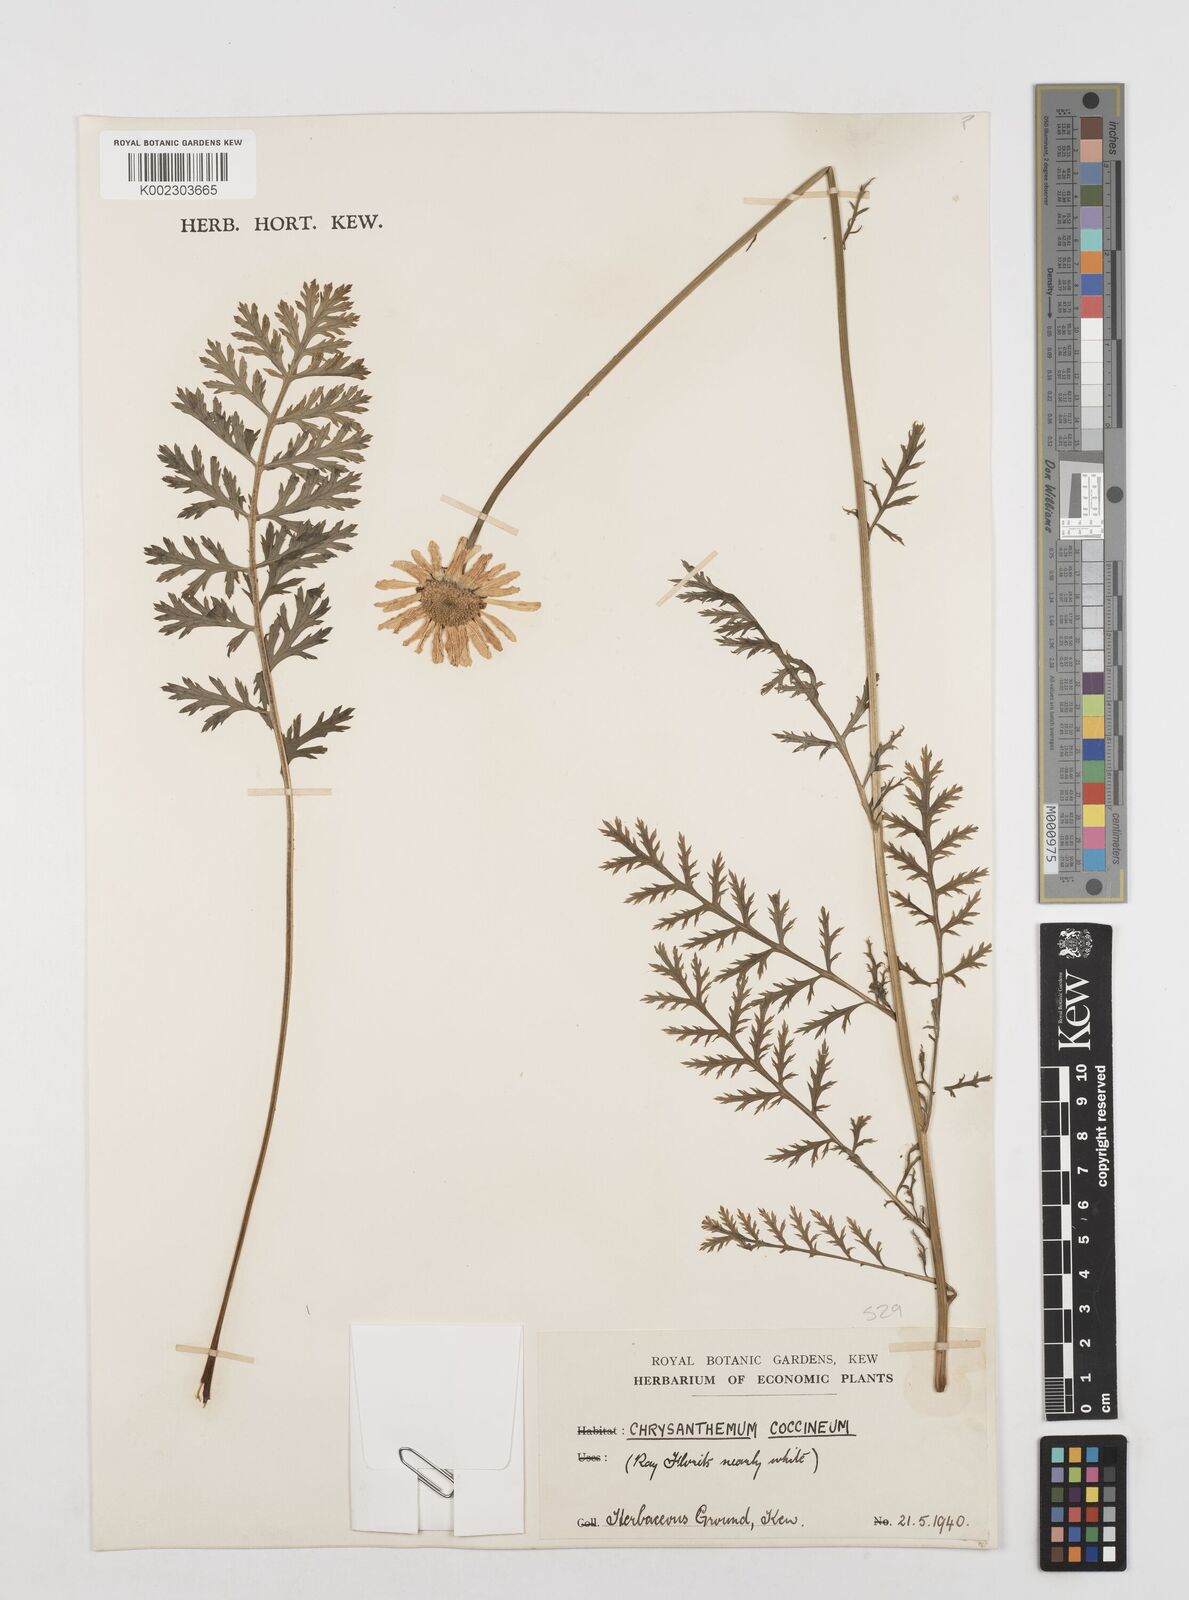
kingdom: Plantae
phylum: Tracheophyta
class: Magnoliopsida
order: Asterales
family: Asteraceae
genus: Tanacetum
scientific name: Tanacetum coccineum
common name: Pyrethum daisy
